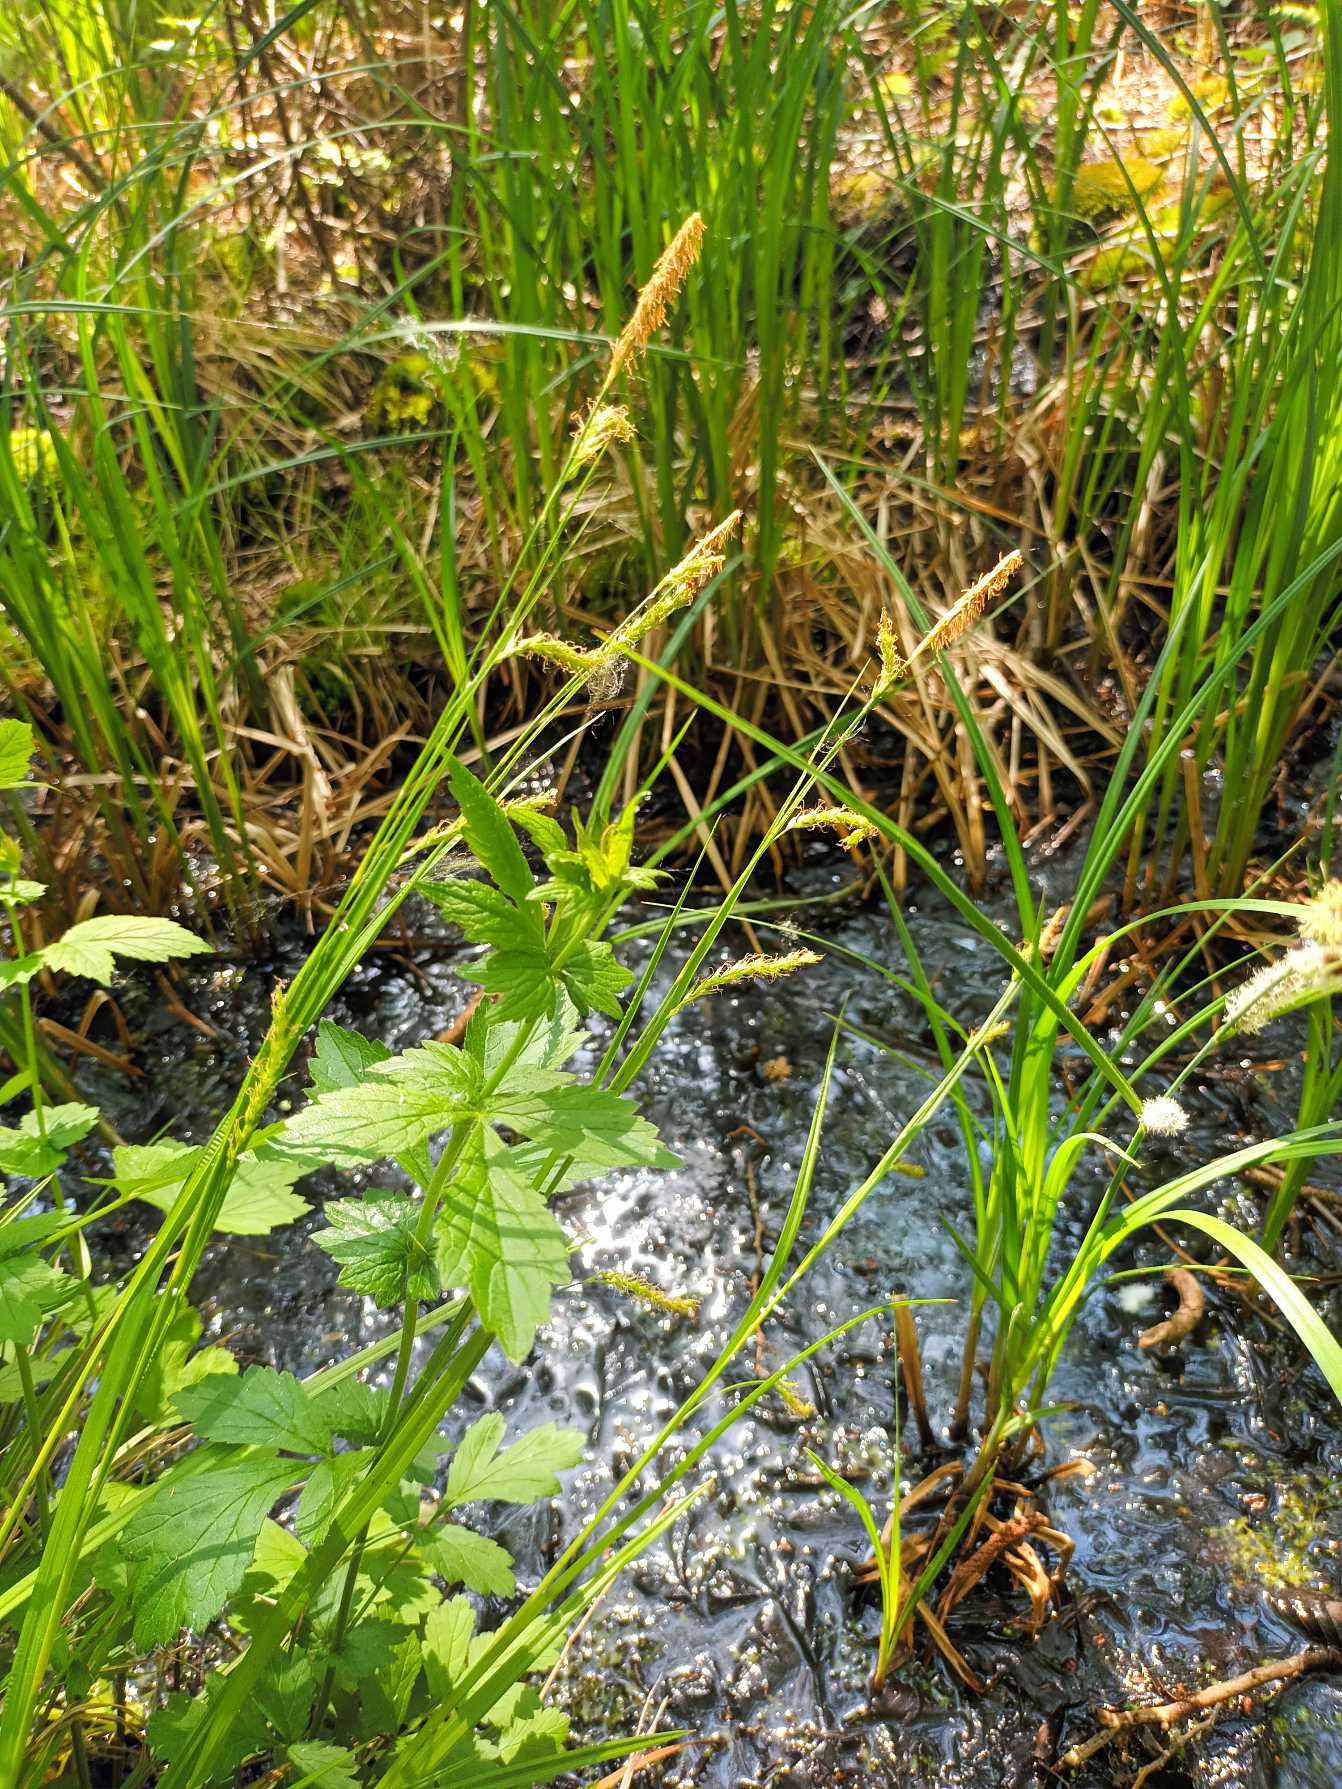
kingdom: Plantae
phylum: Tracheophyta
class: Liliopsida
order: Poales
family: Cyperaceae
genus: Carex
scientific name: Carex sylvatica
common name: Skov-star
